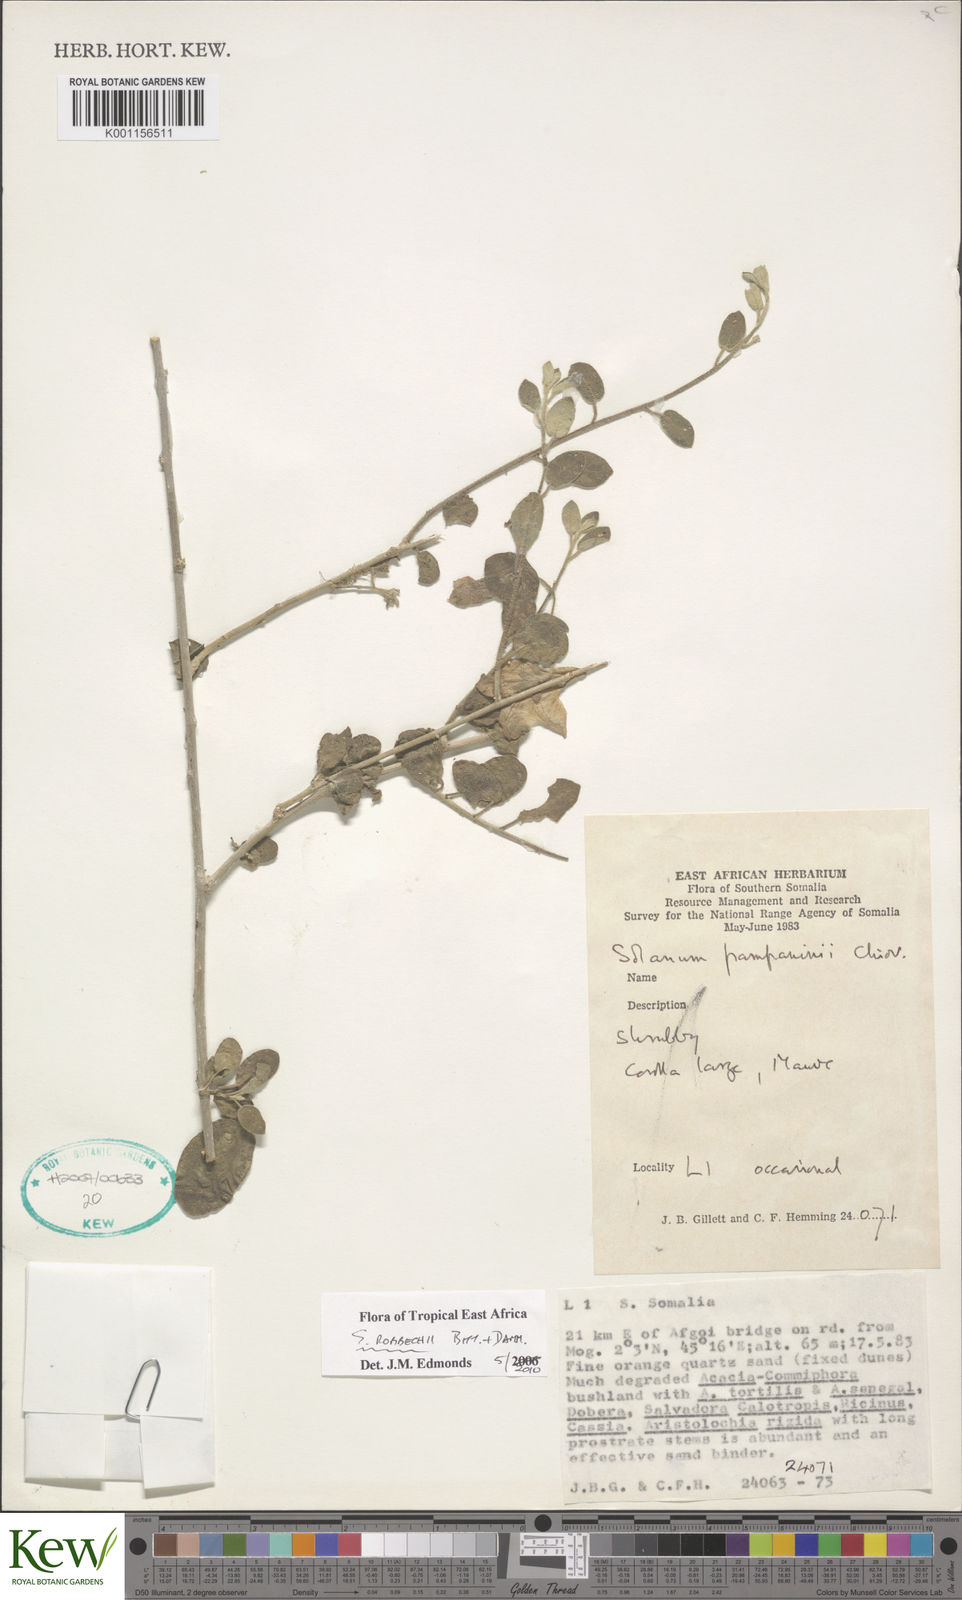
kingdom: Plantae
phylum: Tracheophyta
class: Magnoliopsida
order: Solanales
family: Solanaceae
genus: Solanum
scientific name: Solanum pampaninii
